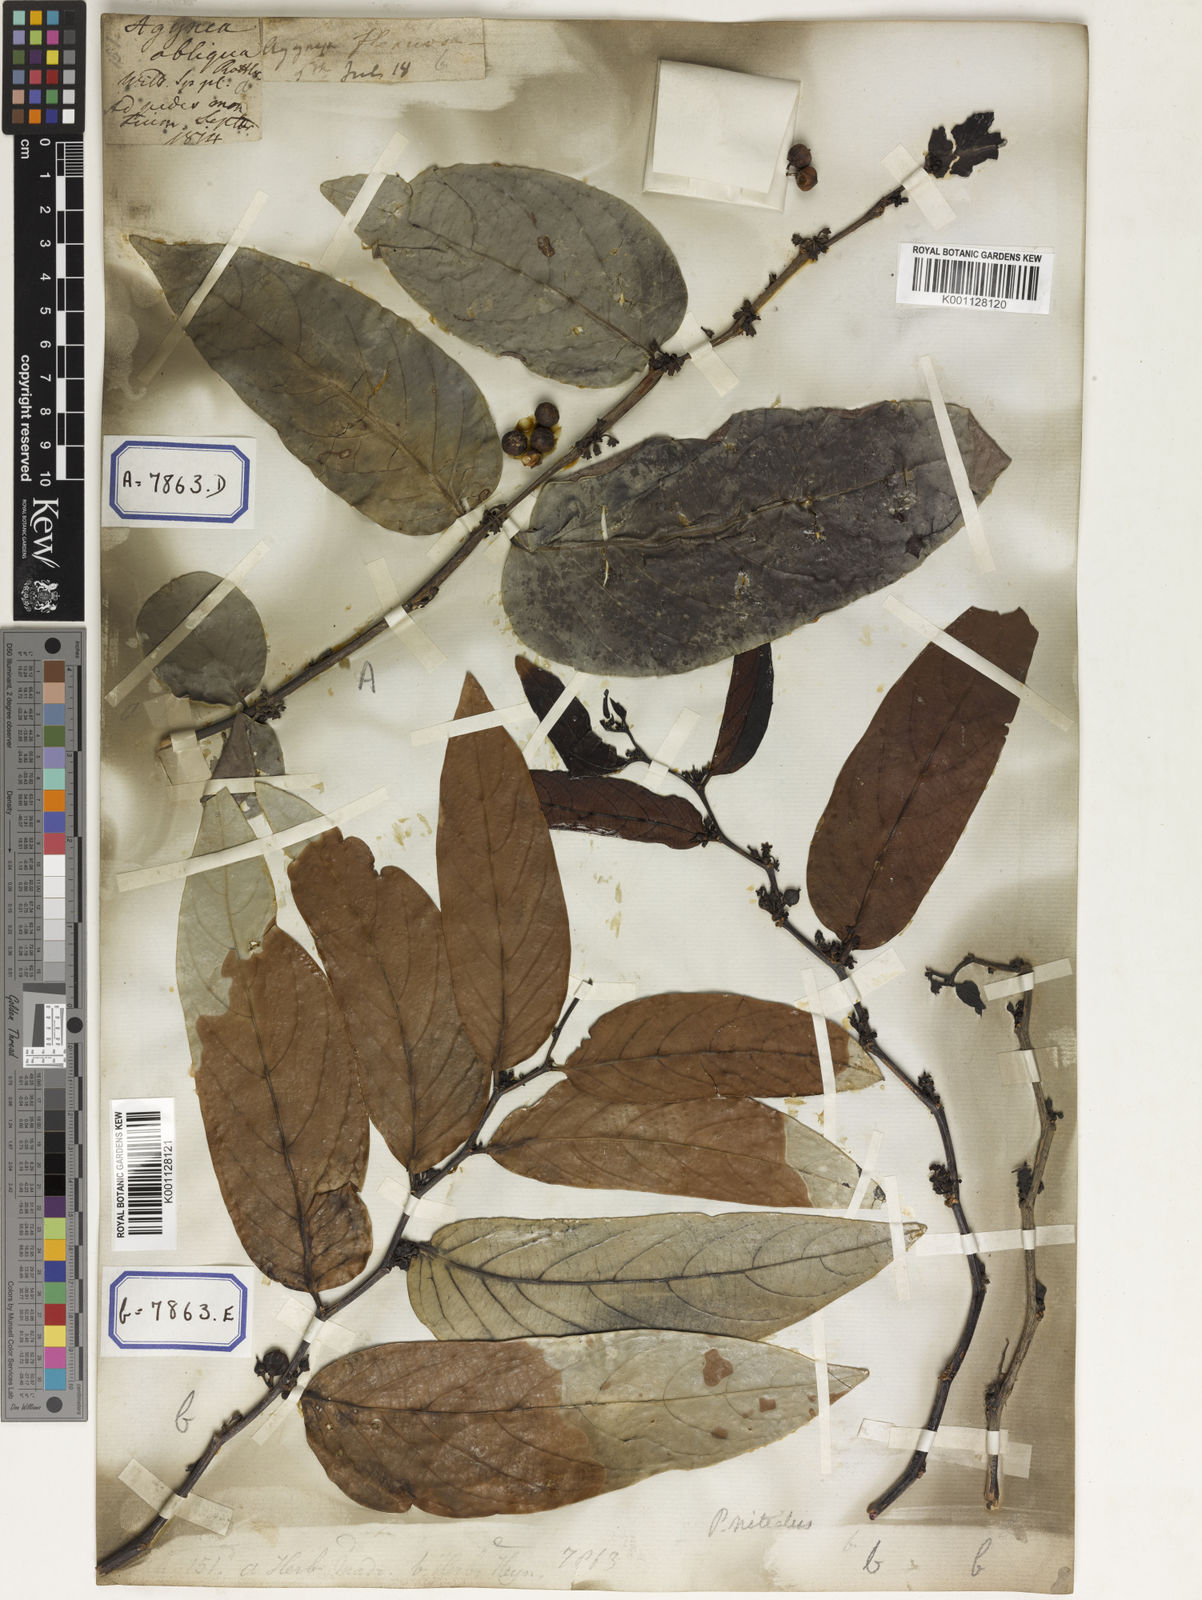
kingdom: Plantae
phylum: Tracheophyta
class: Magnoliopsida
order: Malpighiales
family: Euphorbiaceae
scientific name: Euphorbiaceae
